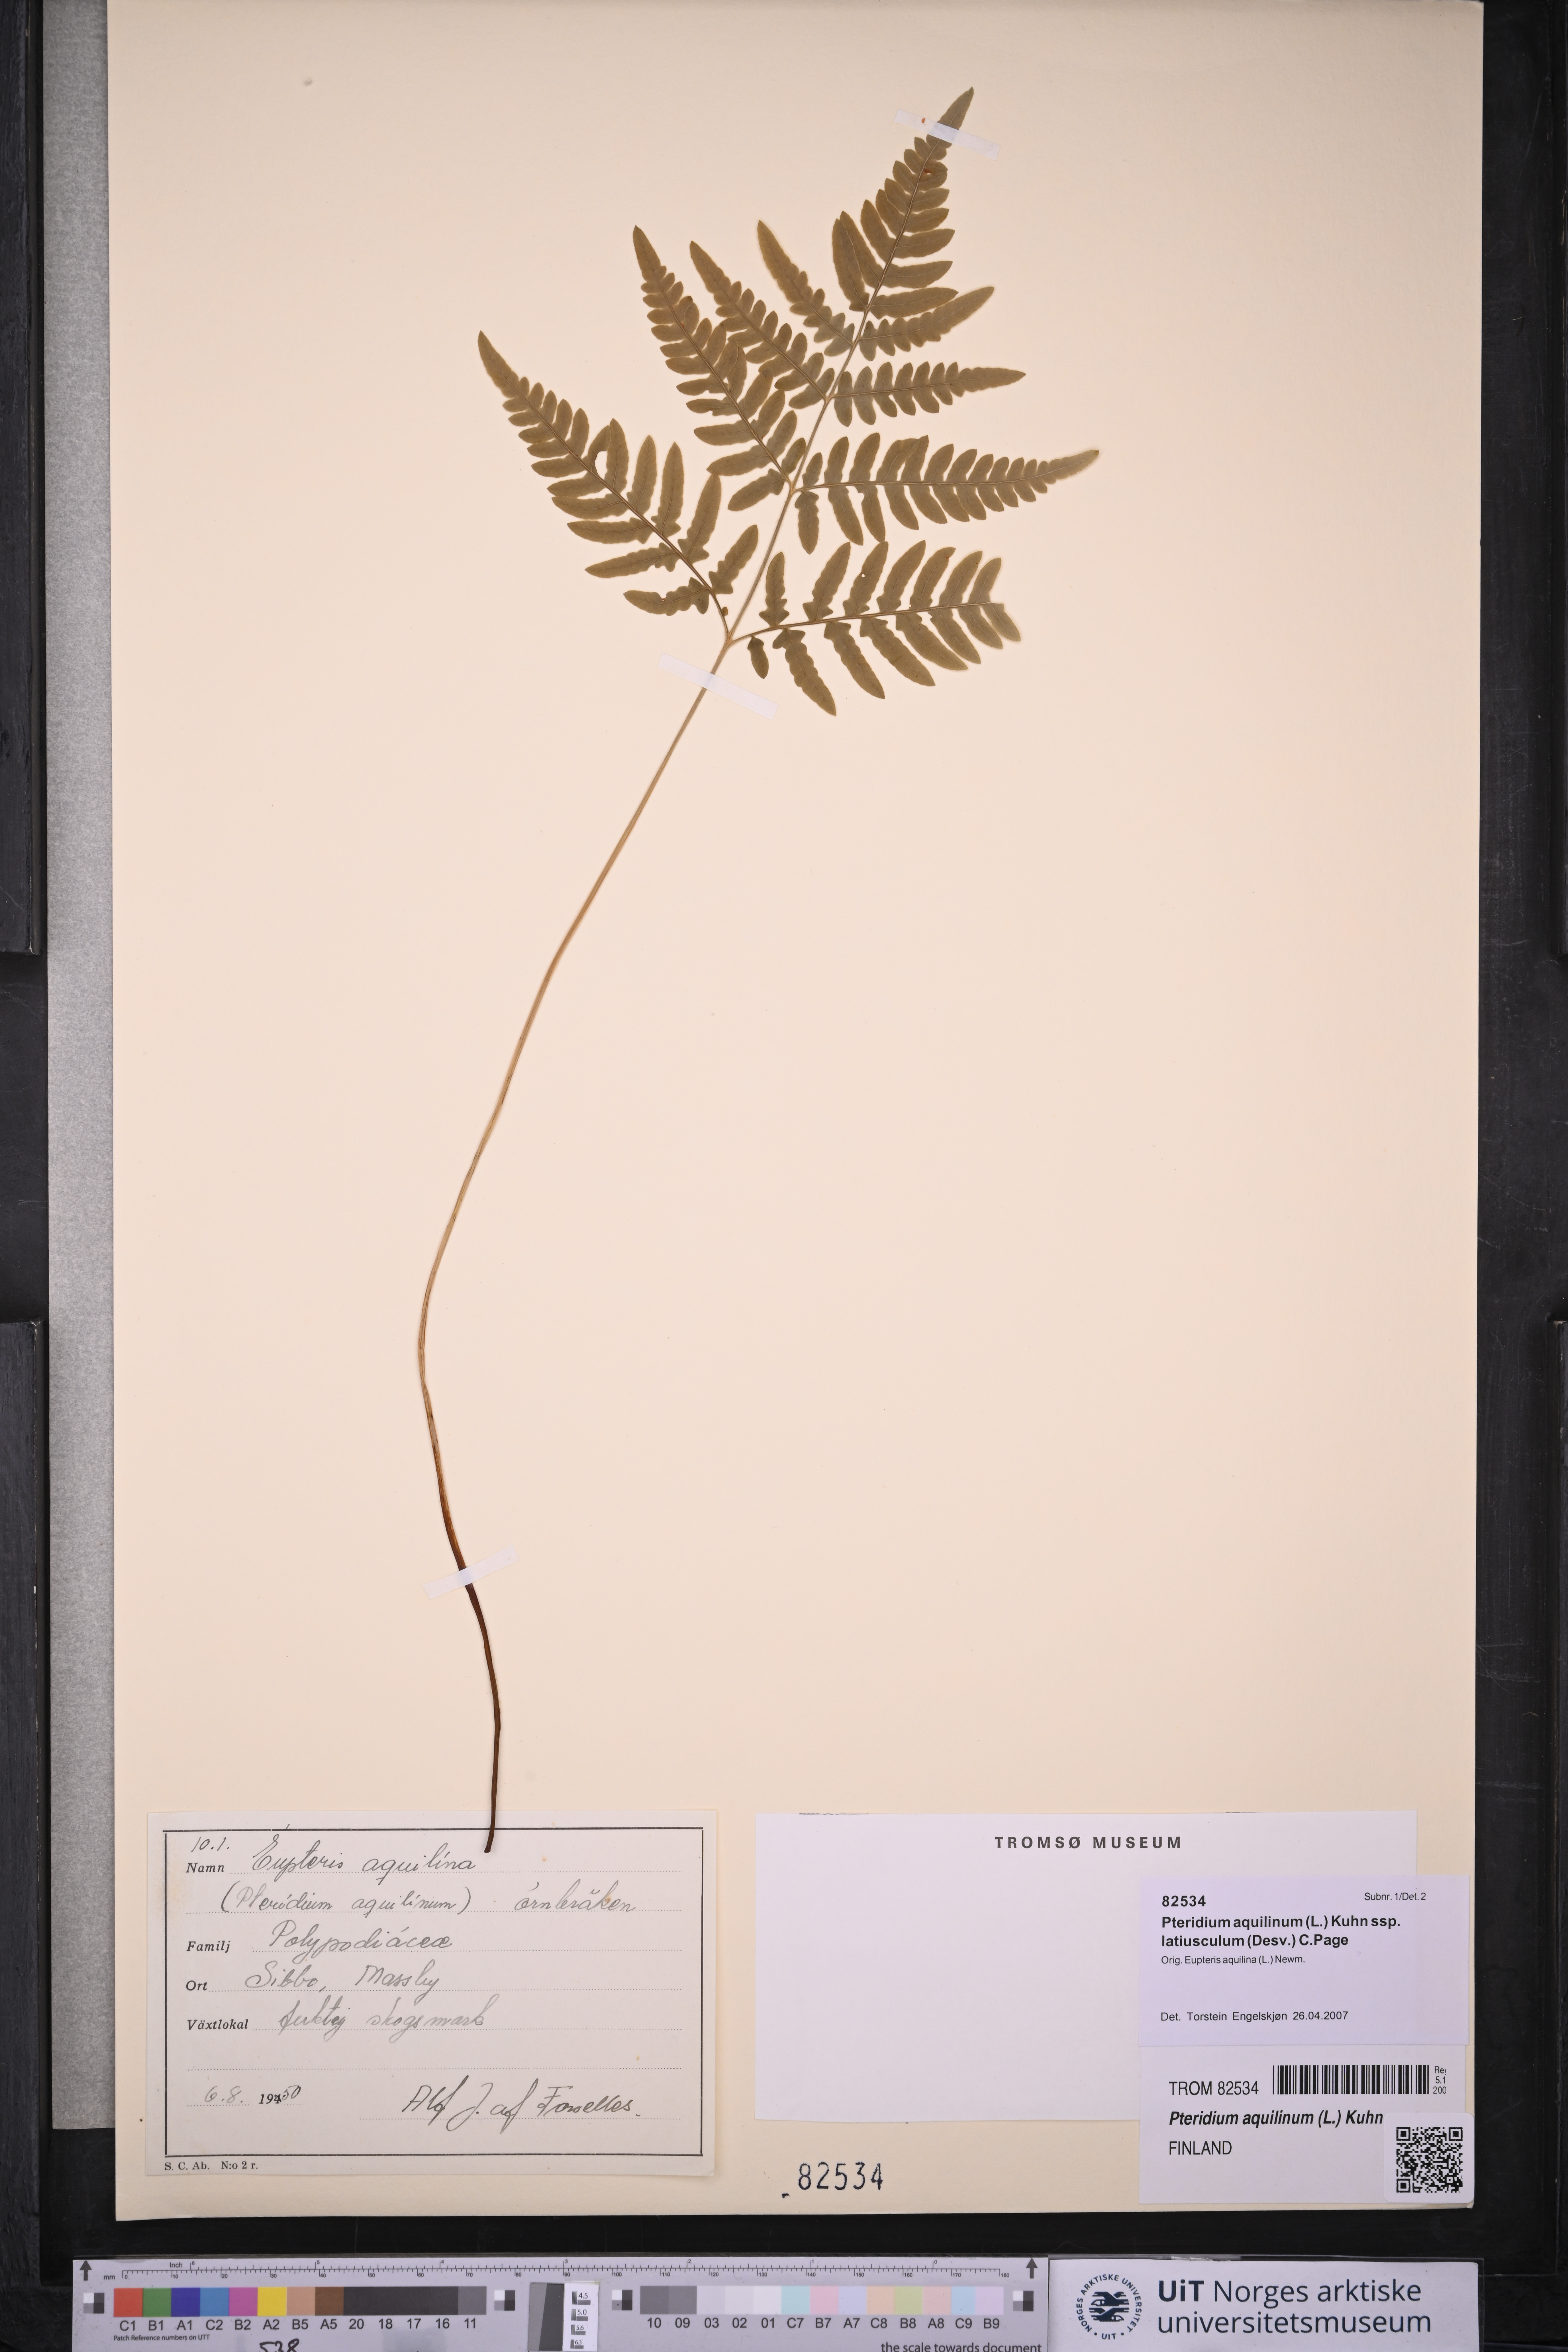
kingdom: Plantae
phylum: Tracheophyta
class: Polypodiopsida
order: Polypodiales
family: Dennstaedtiaceae
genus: Pteridium
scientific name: Pteridium aquilinum
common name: Bracken
